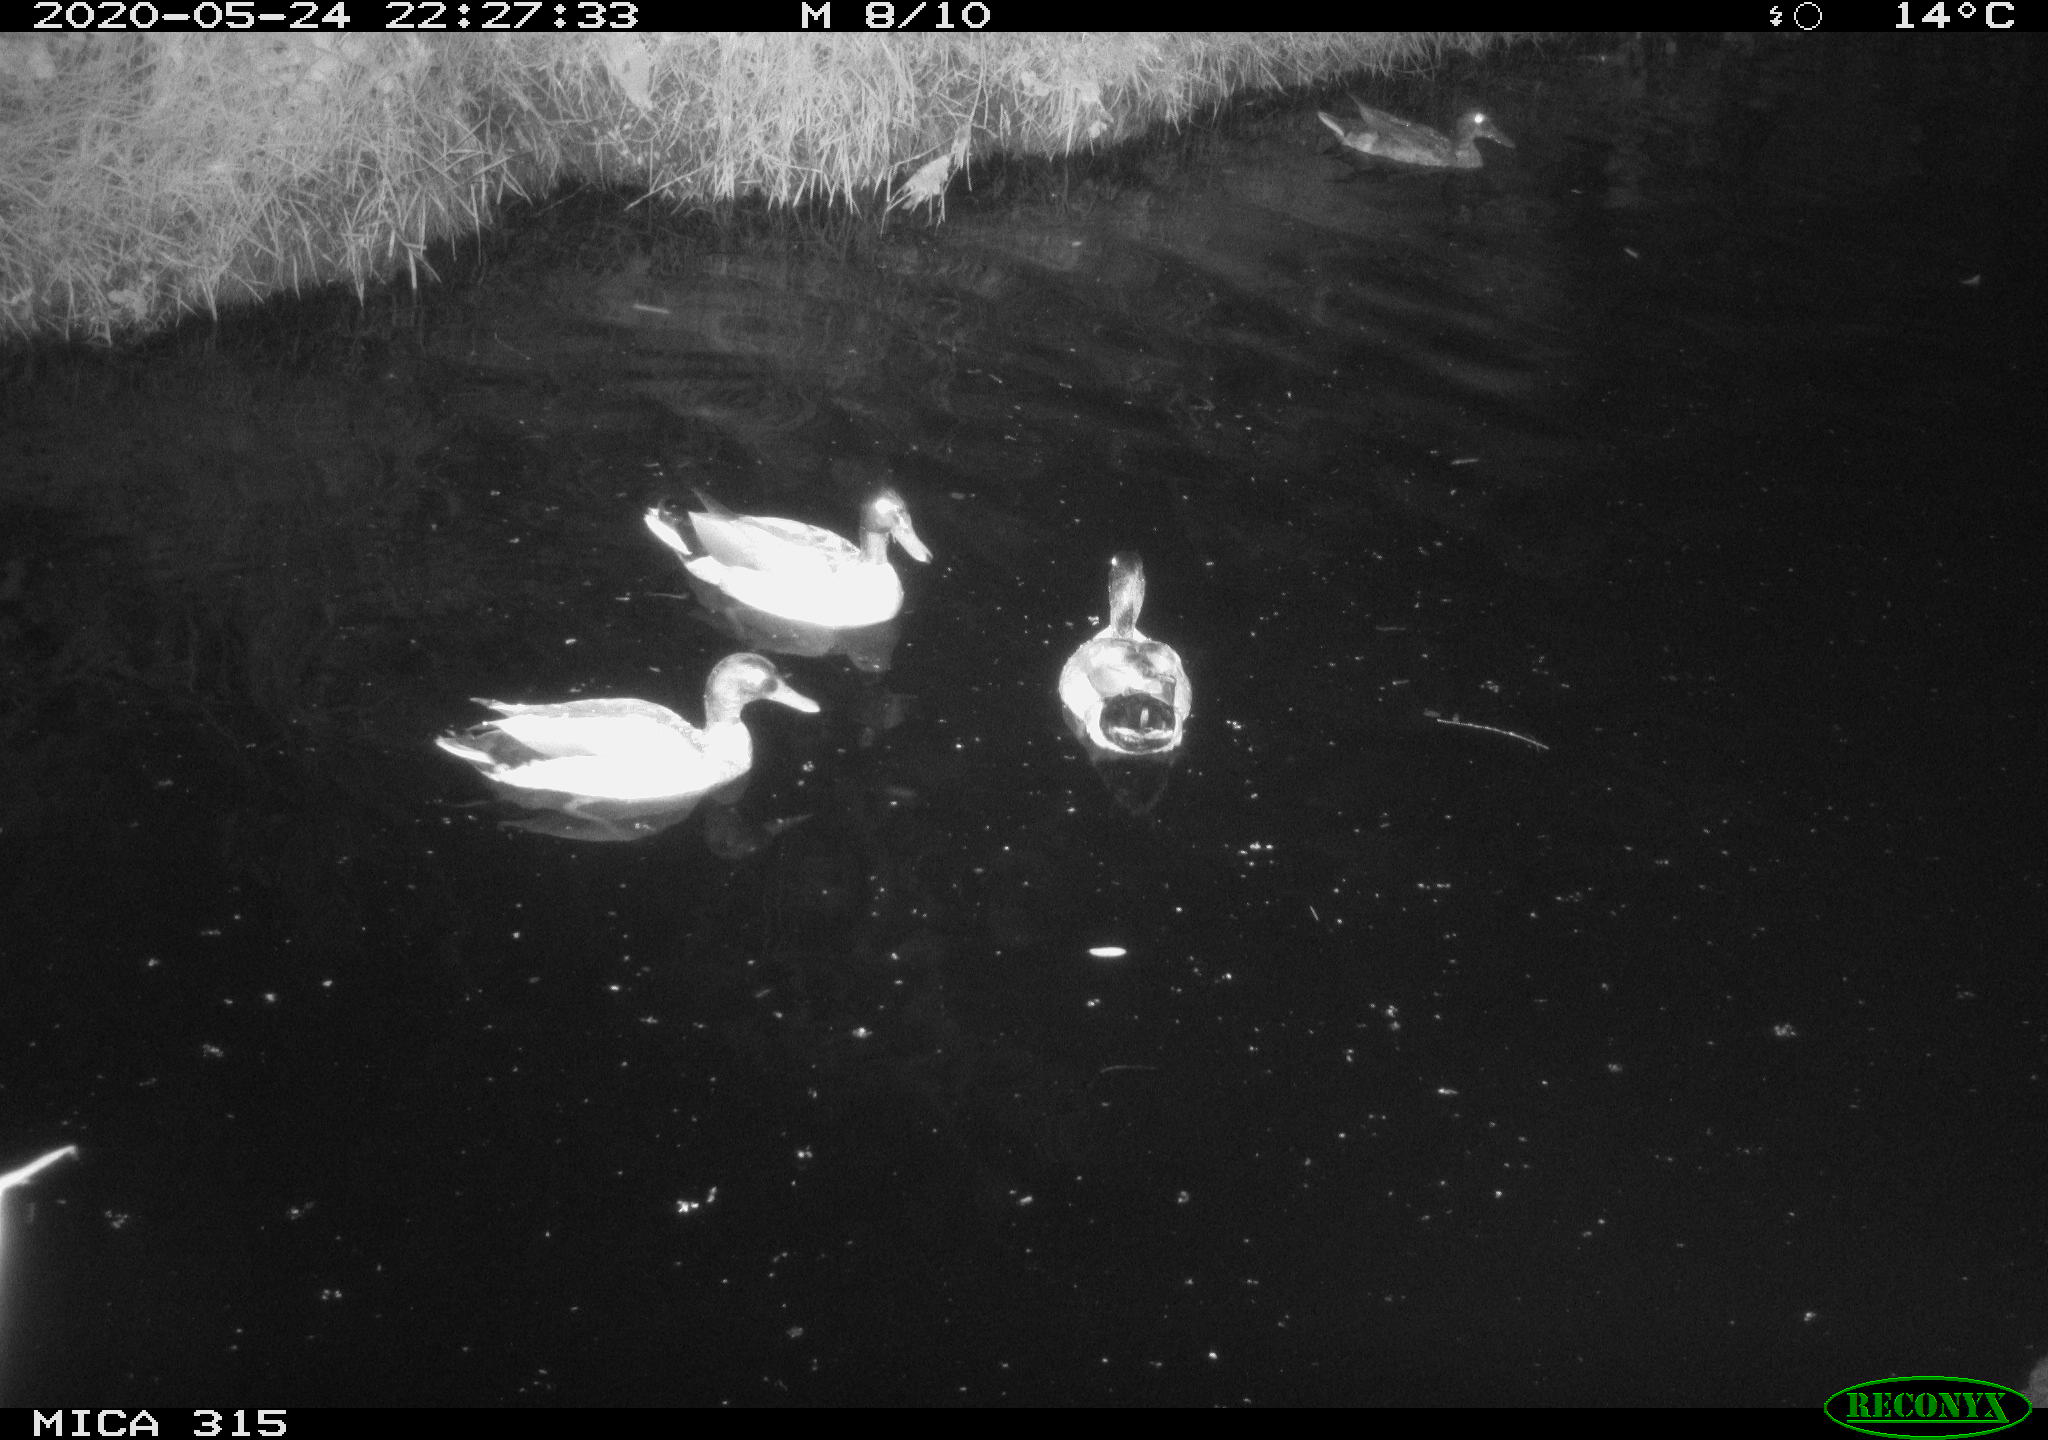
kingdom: Animalia
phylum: Chordata
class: Aves
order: Anseriformes
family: Anatidae
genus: Anas
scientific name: Anas platyrhynchos
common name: Mallard
